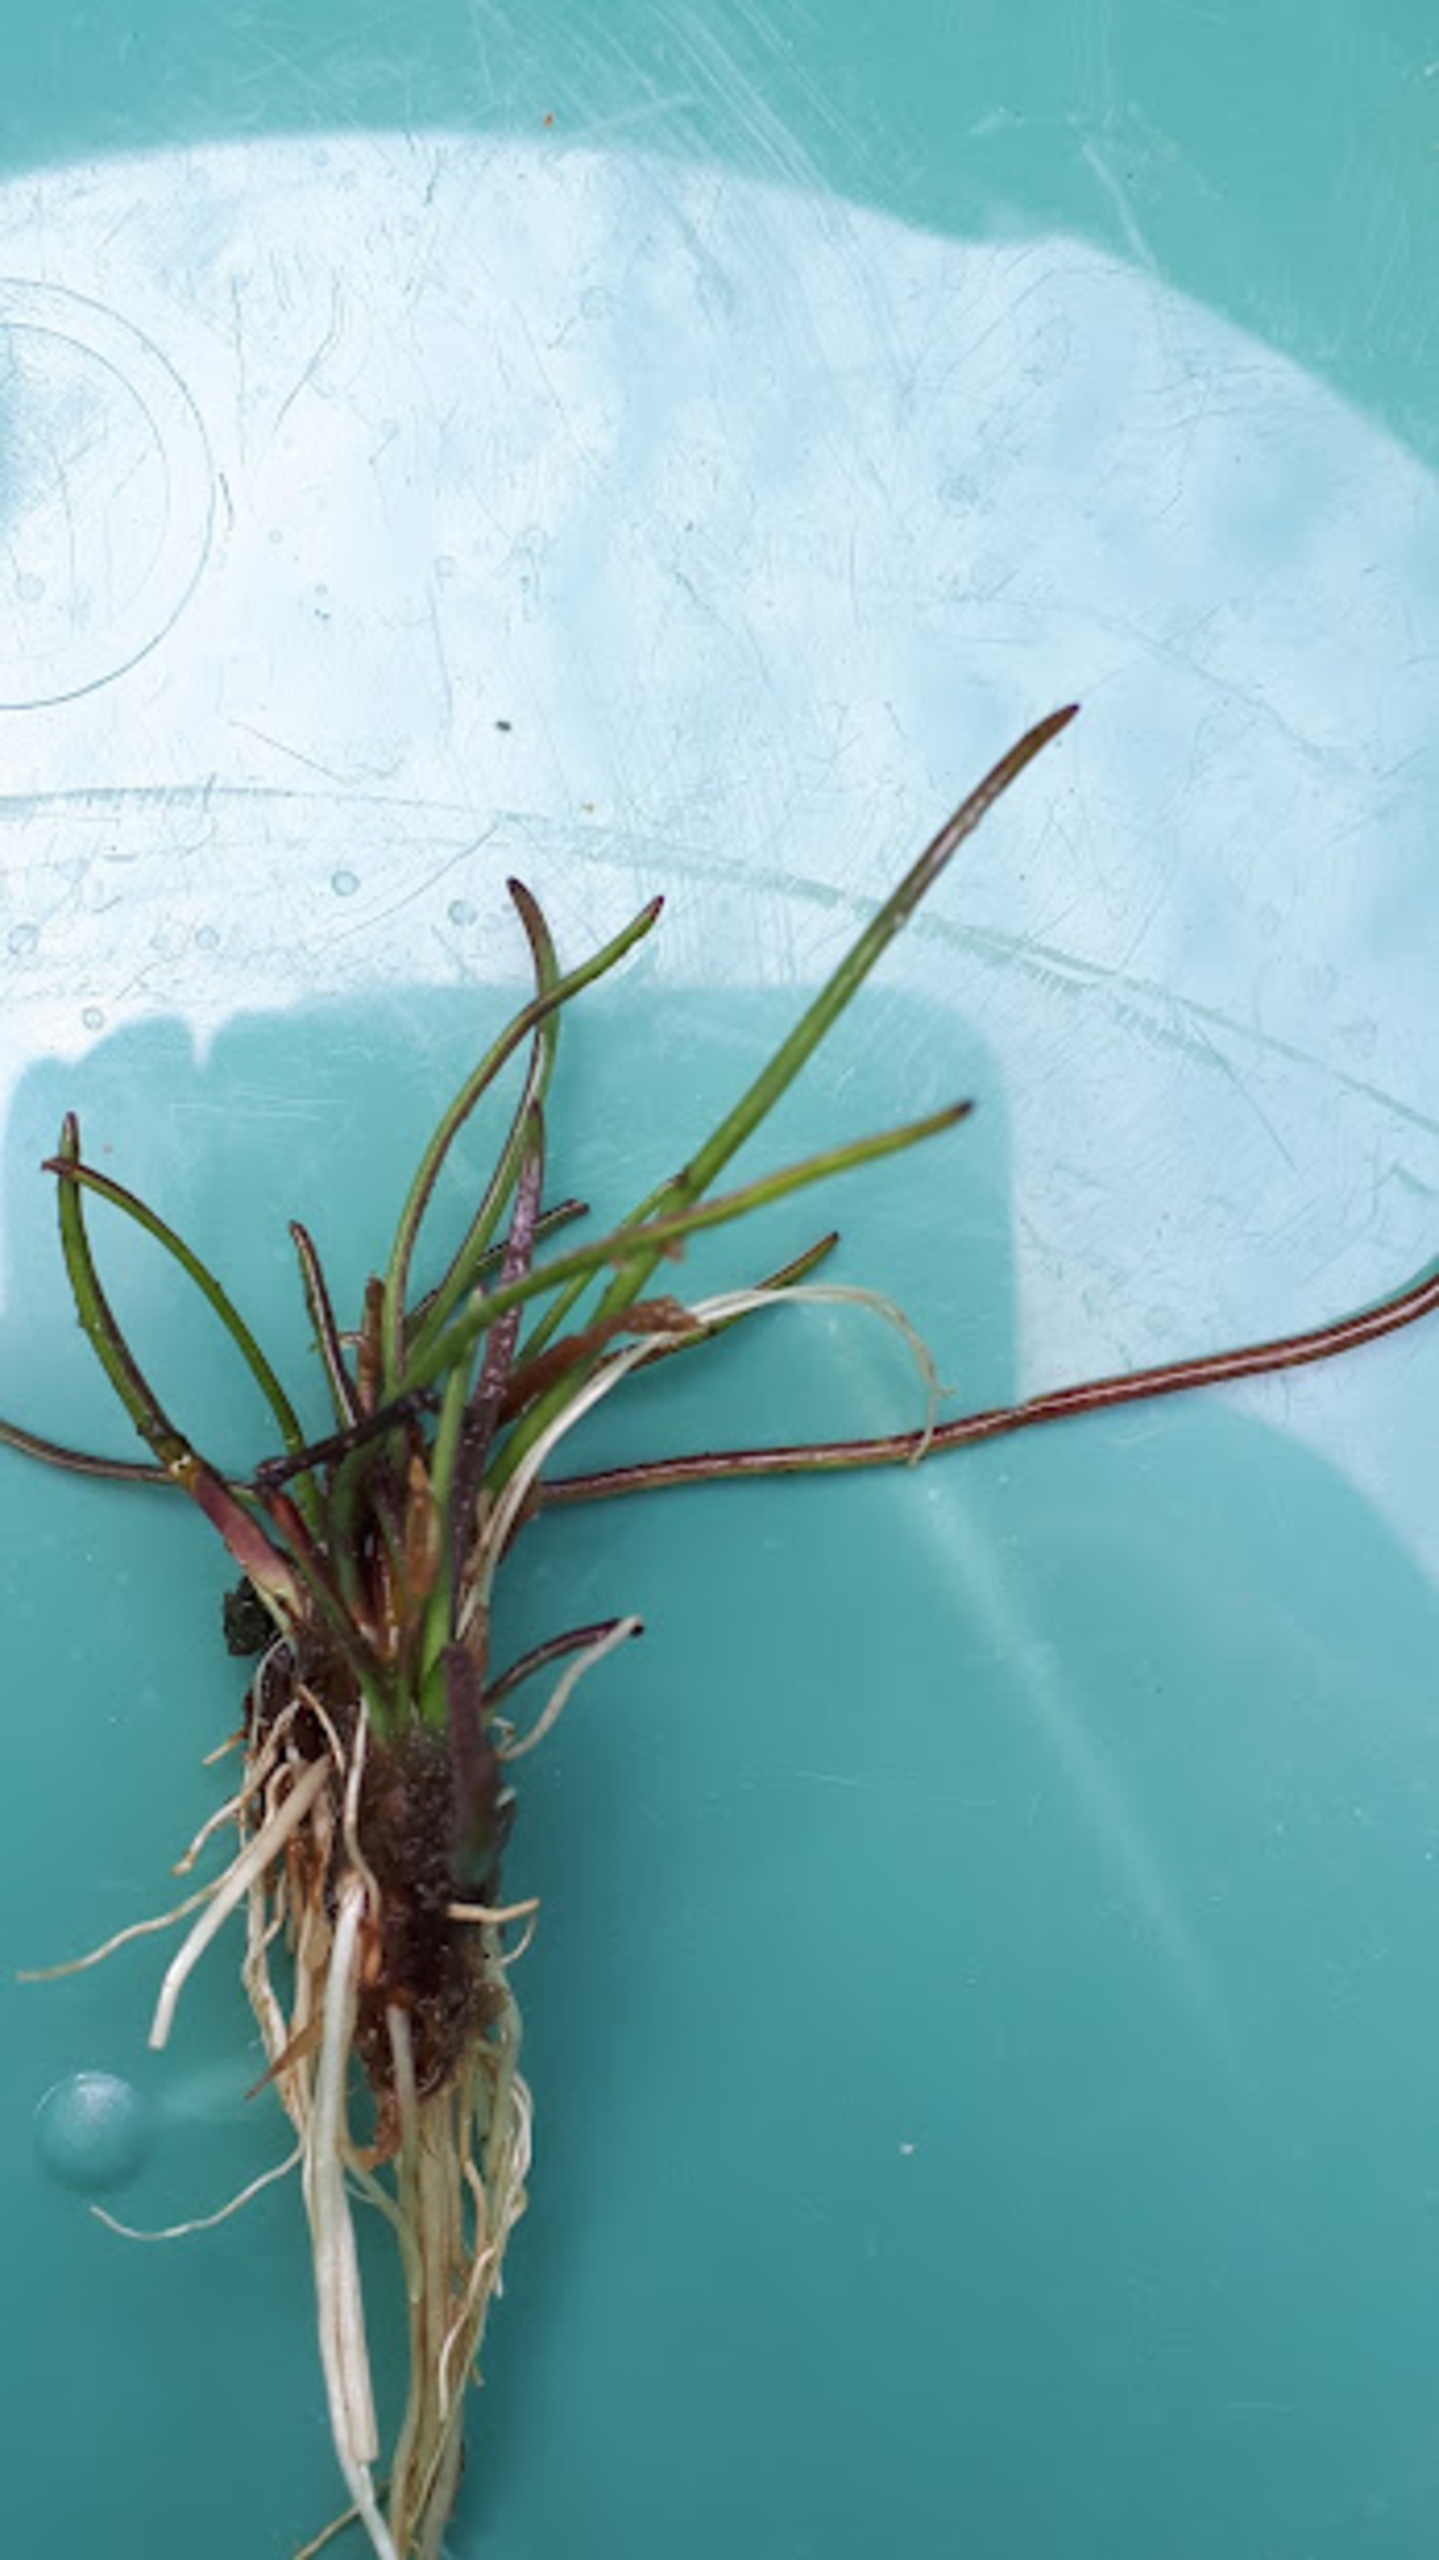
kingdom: Plantae
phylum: Tracheophyta
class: Magnoliopsida
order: Lamiales
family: Plantaginaceae
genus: Littorella
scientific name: Littorella uniflora
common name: Strandbo
